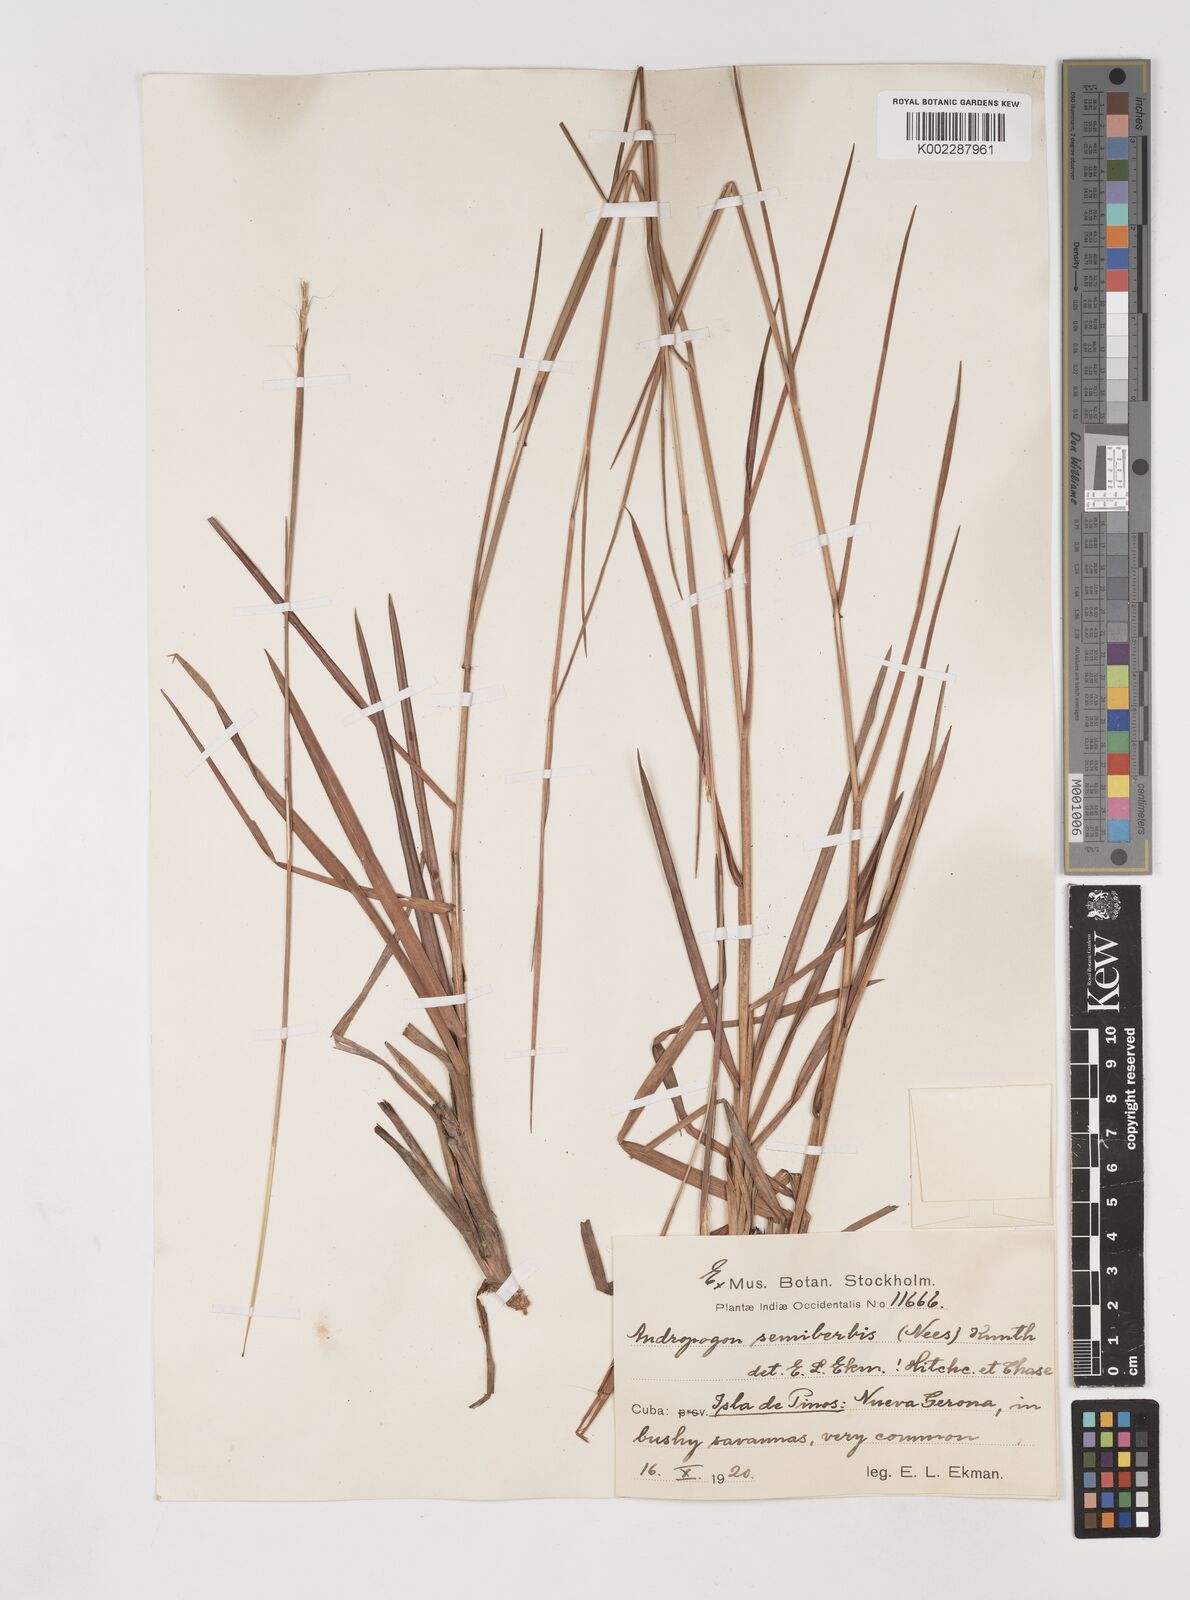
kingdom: Plantae
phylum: Tracheophyta
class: Liliopsida
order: Poales
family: Poaceae
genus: Schizachyrium
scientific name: Schizachyrium sanguineum
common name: Crimson bluestem
